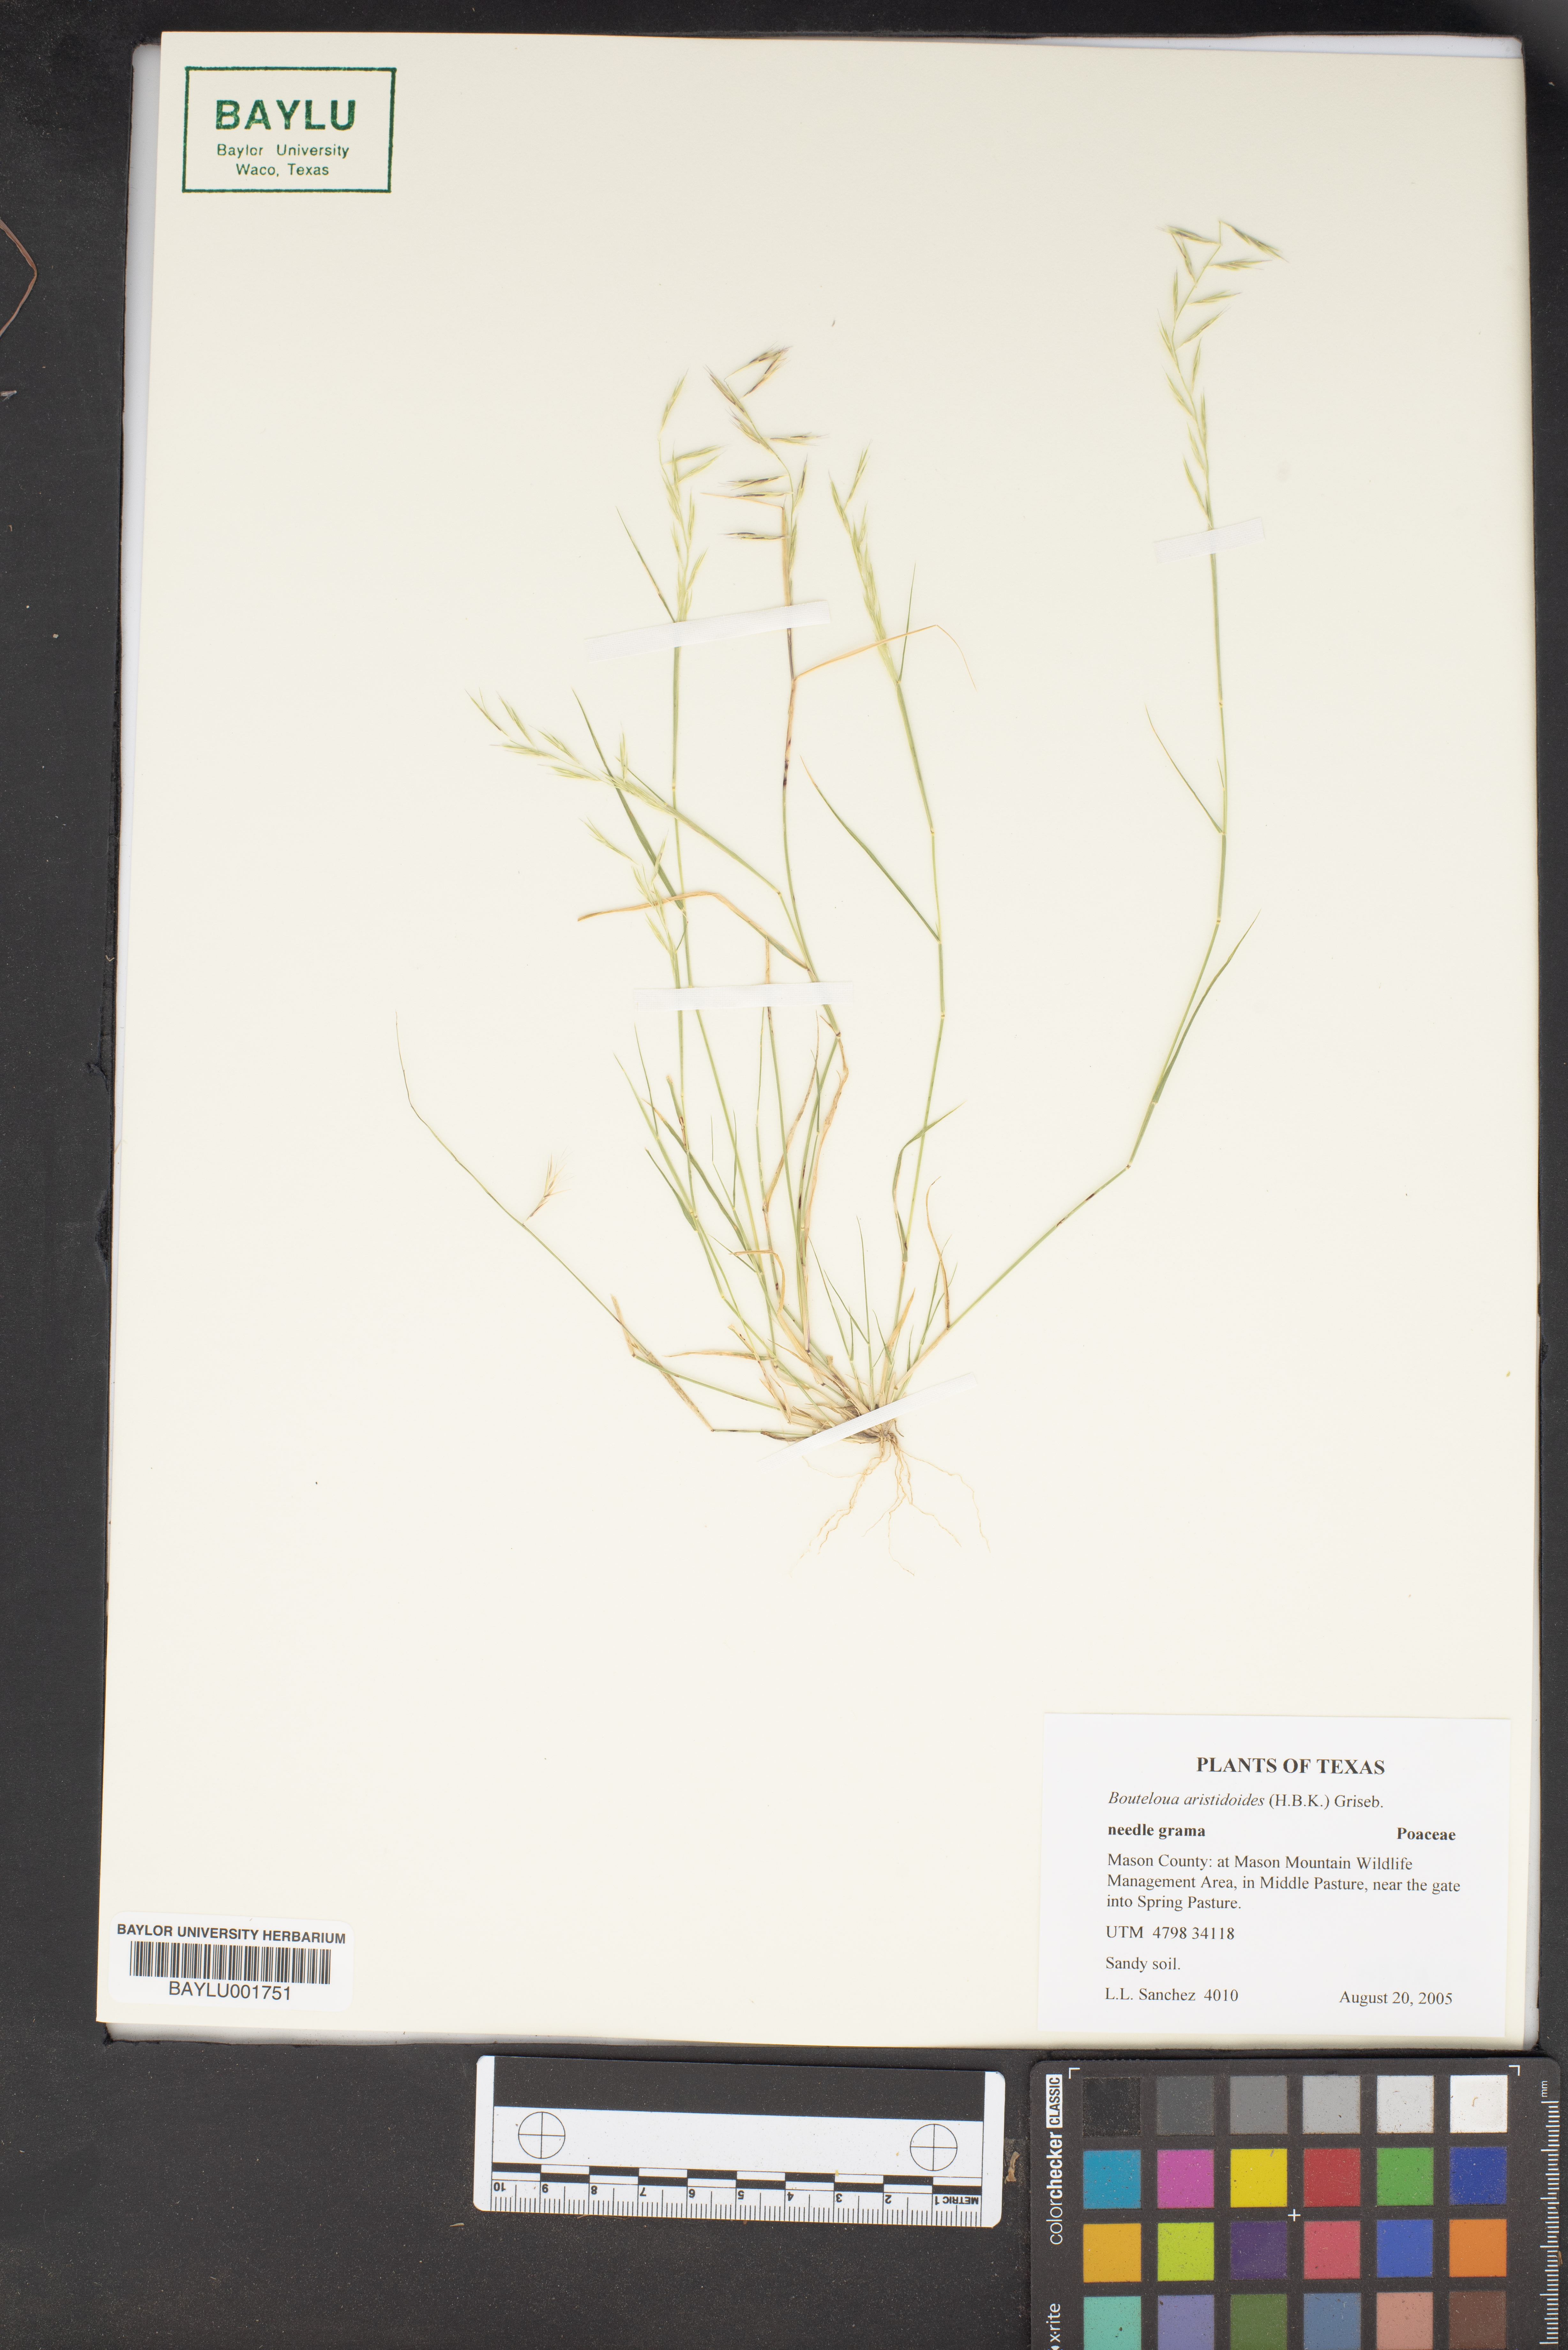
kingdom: Plantae
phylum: Tracheophyta
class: Liliopsida
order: Poales
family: Poaceae
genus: Bouteloua
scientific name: Bouteloua aristidoides
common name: Needle grama
